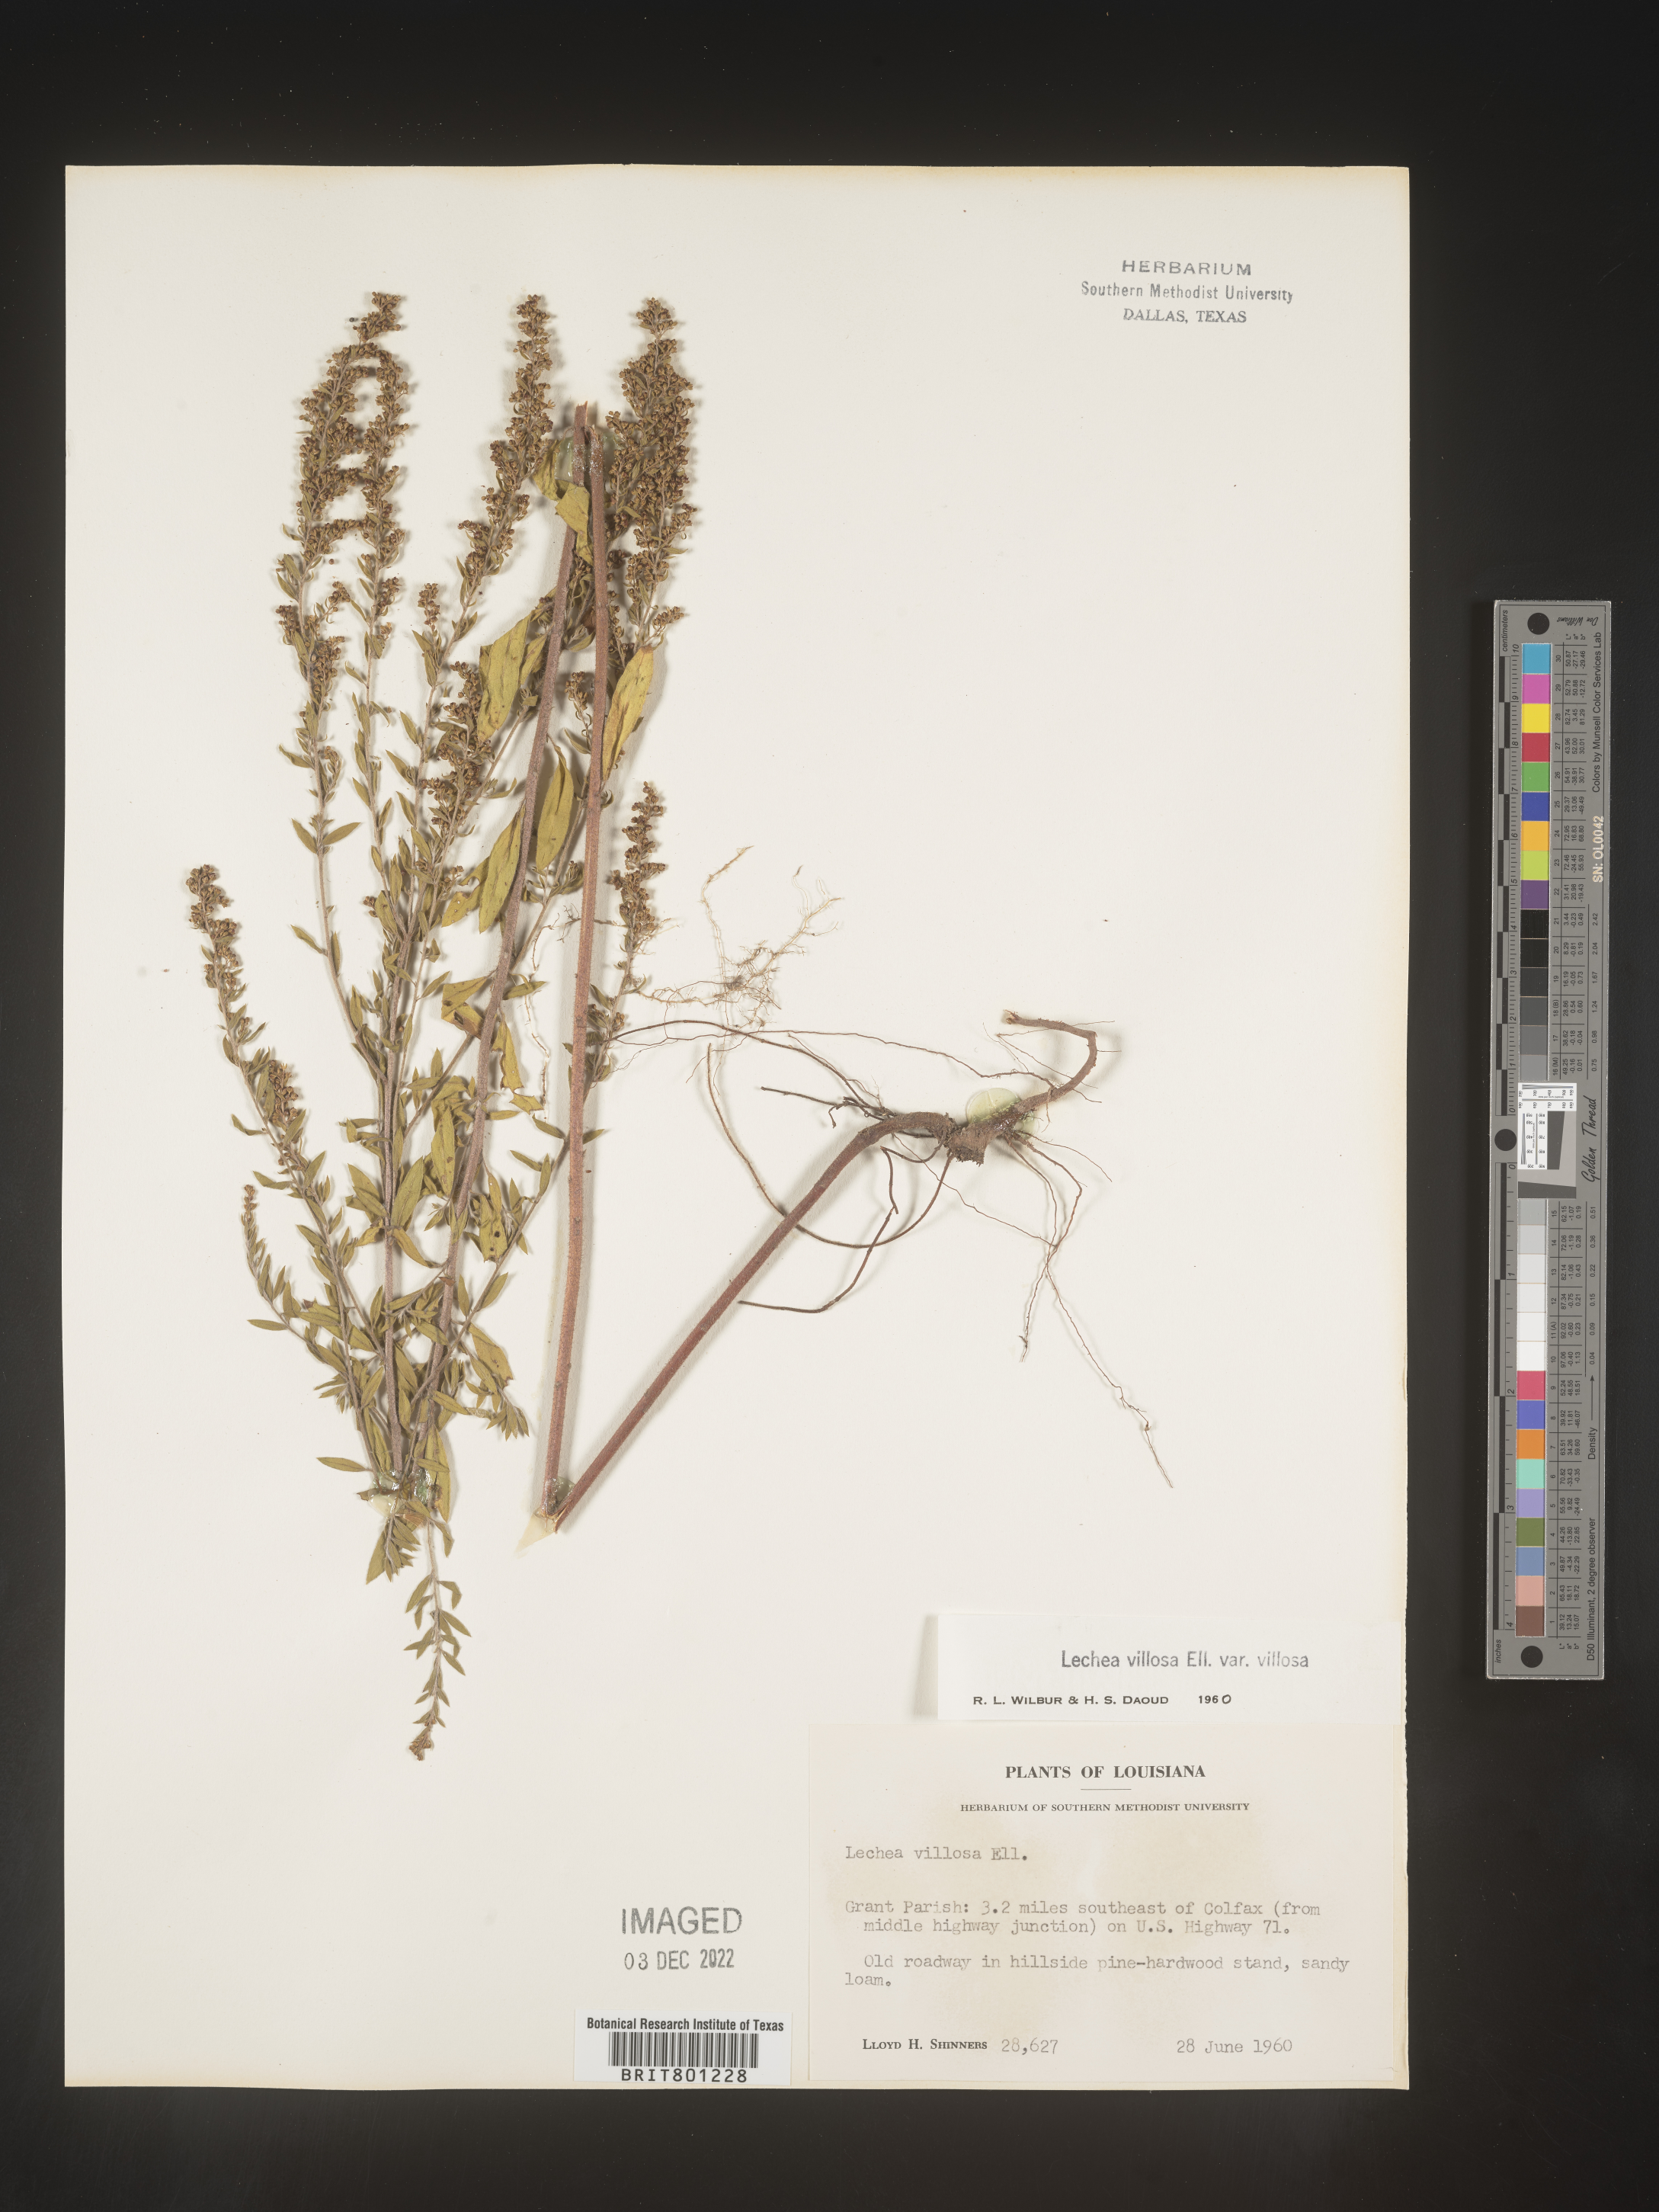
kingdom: Plantae
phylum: Tracheophyta
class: Magnoliopsida
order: Malvales
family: Cistaceae
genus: Lechea
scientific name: Lechea mucronata
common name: Hairy pinweed
